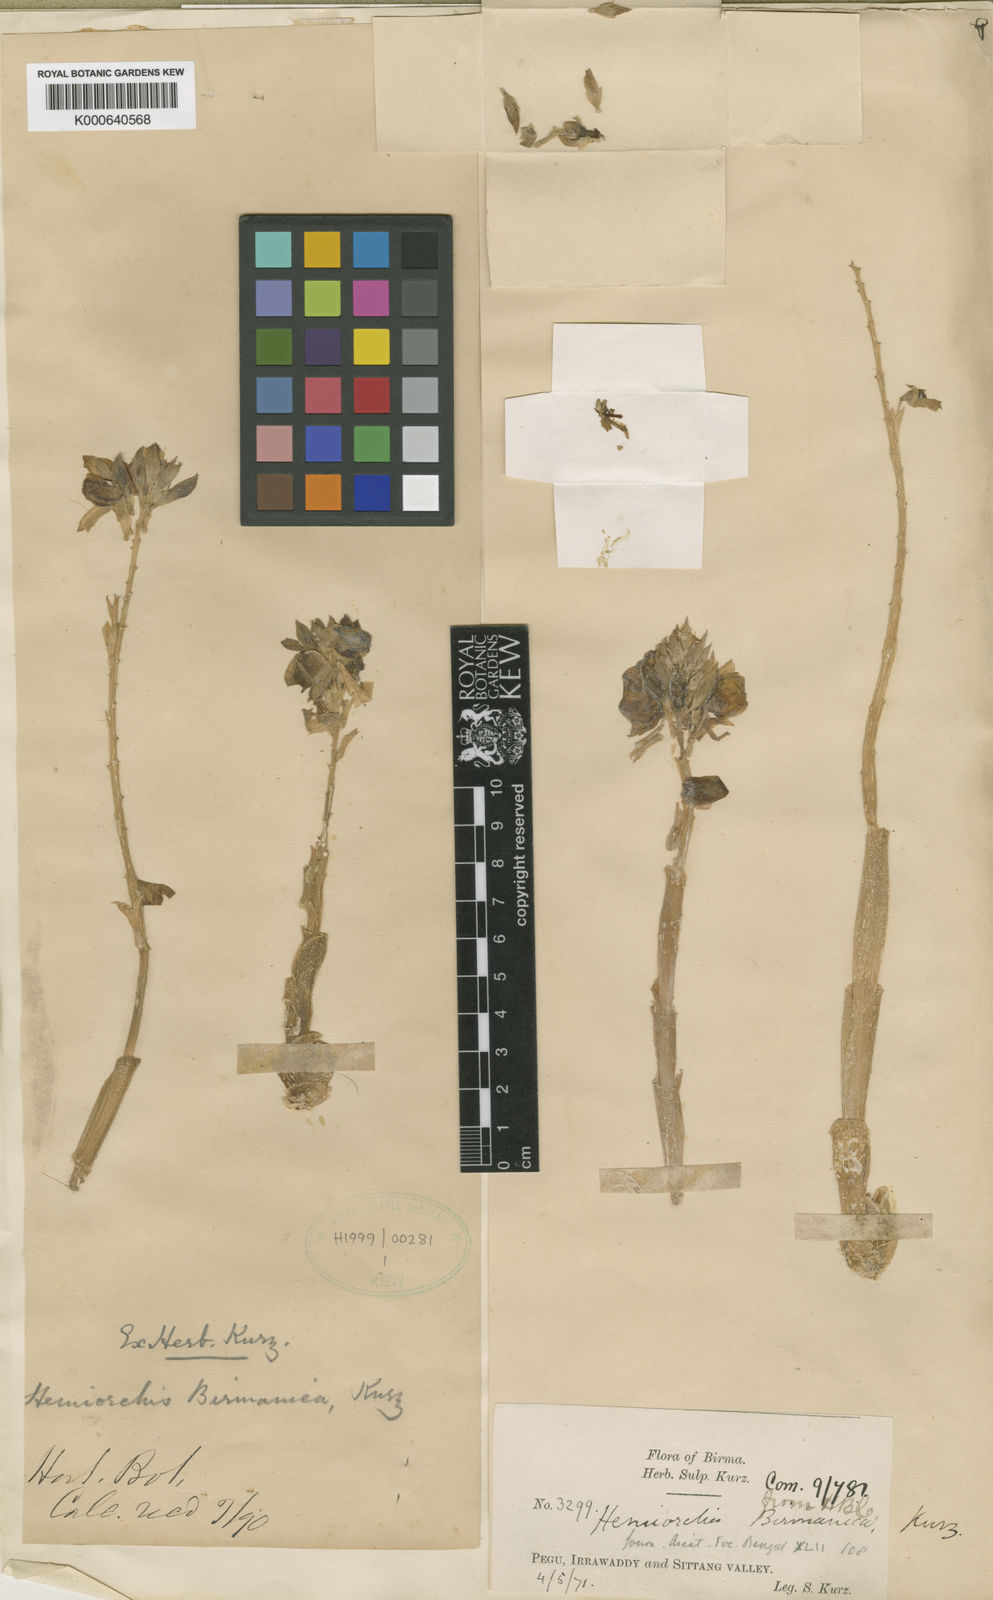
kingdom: Plantae
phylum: Tracheophyta
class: Liliopsida
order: Zingiberales
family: Zingiberaceae
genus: Hemiorchis
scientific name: Hemiorchis burmanica
